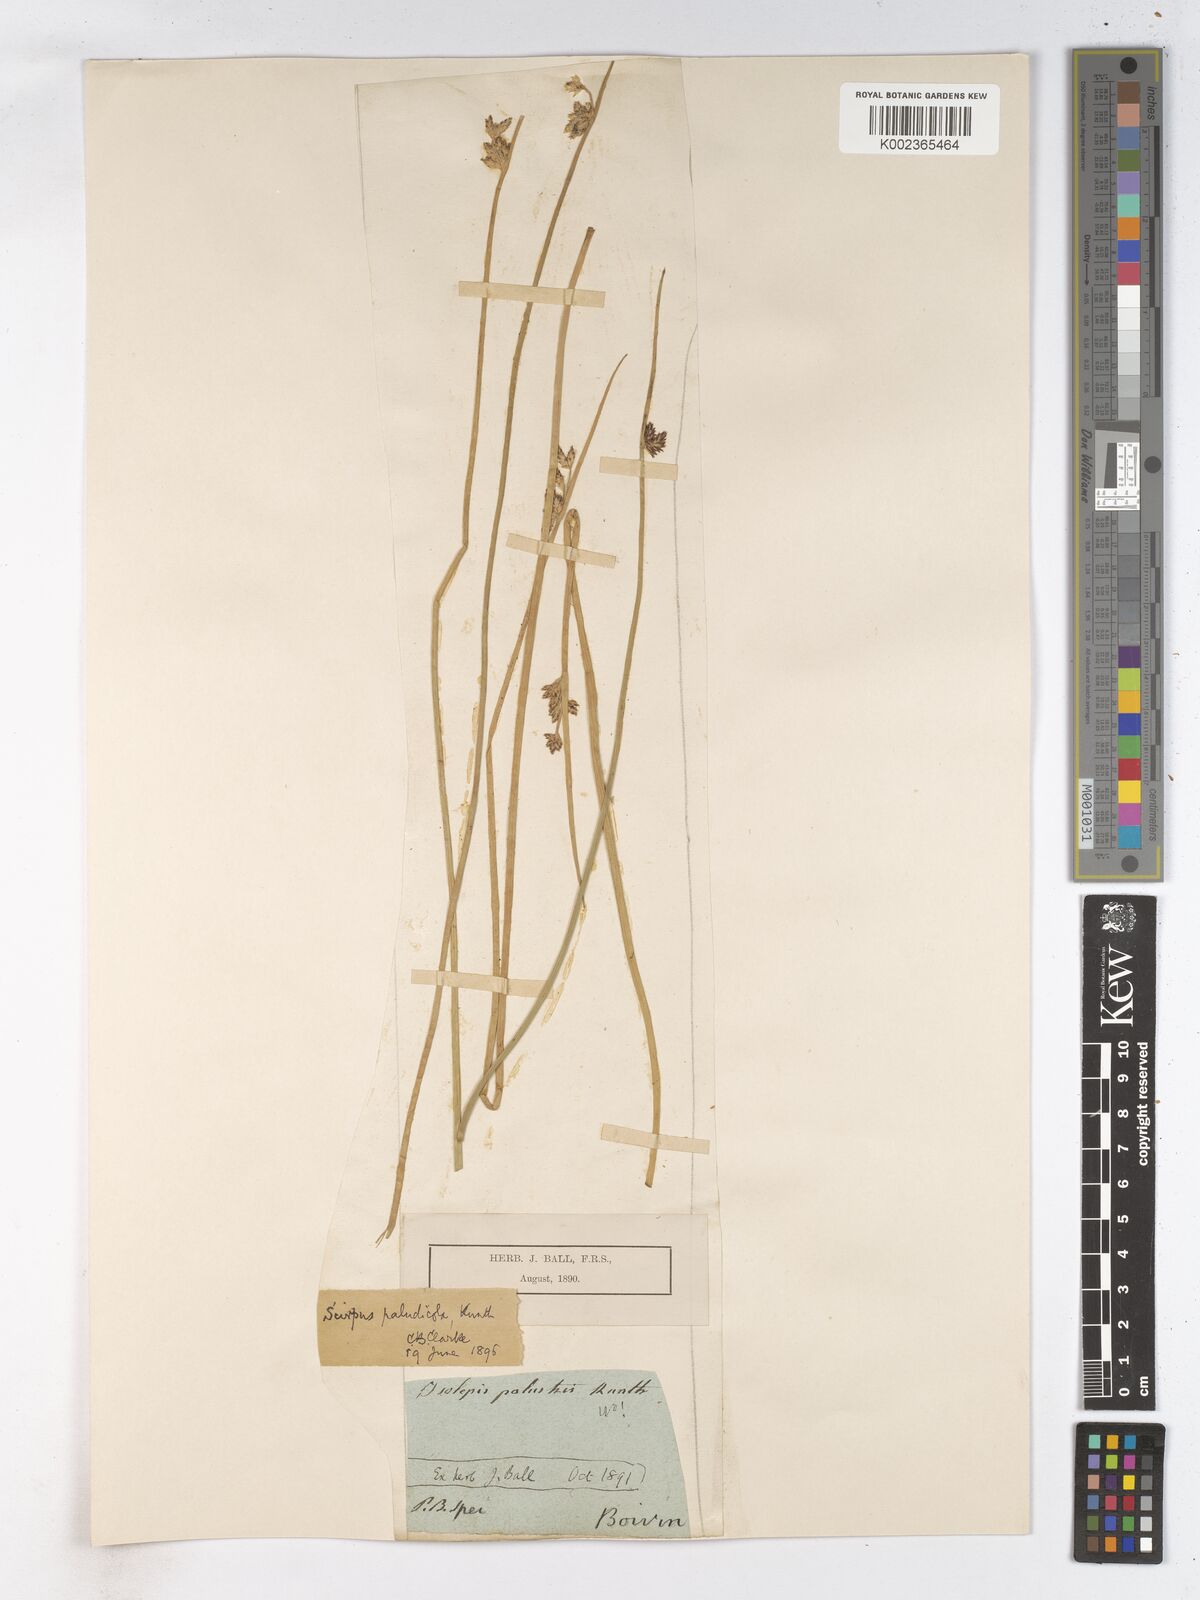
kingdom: Plantae
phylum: Tracheophyta
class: Liliopsida
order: Poales
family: Cyperaceae
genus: Schoenoplectiella
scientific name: Schoenoplectiella paludicola
